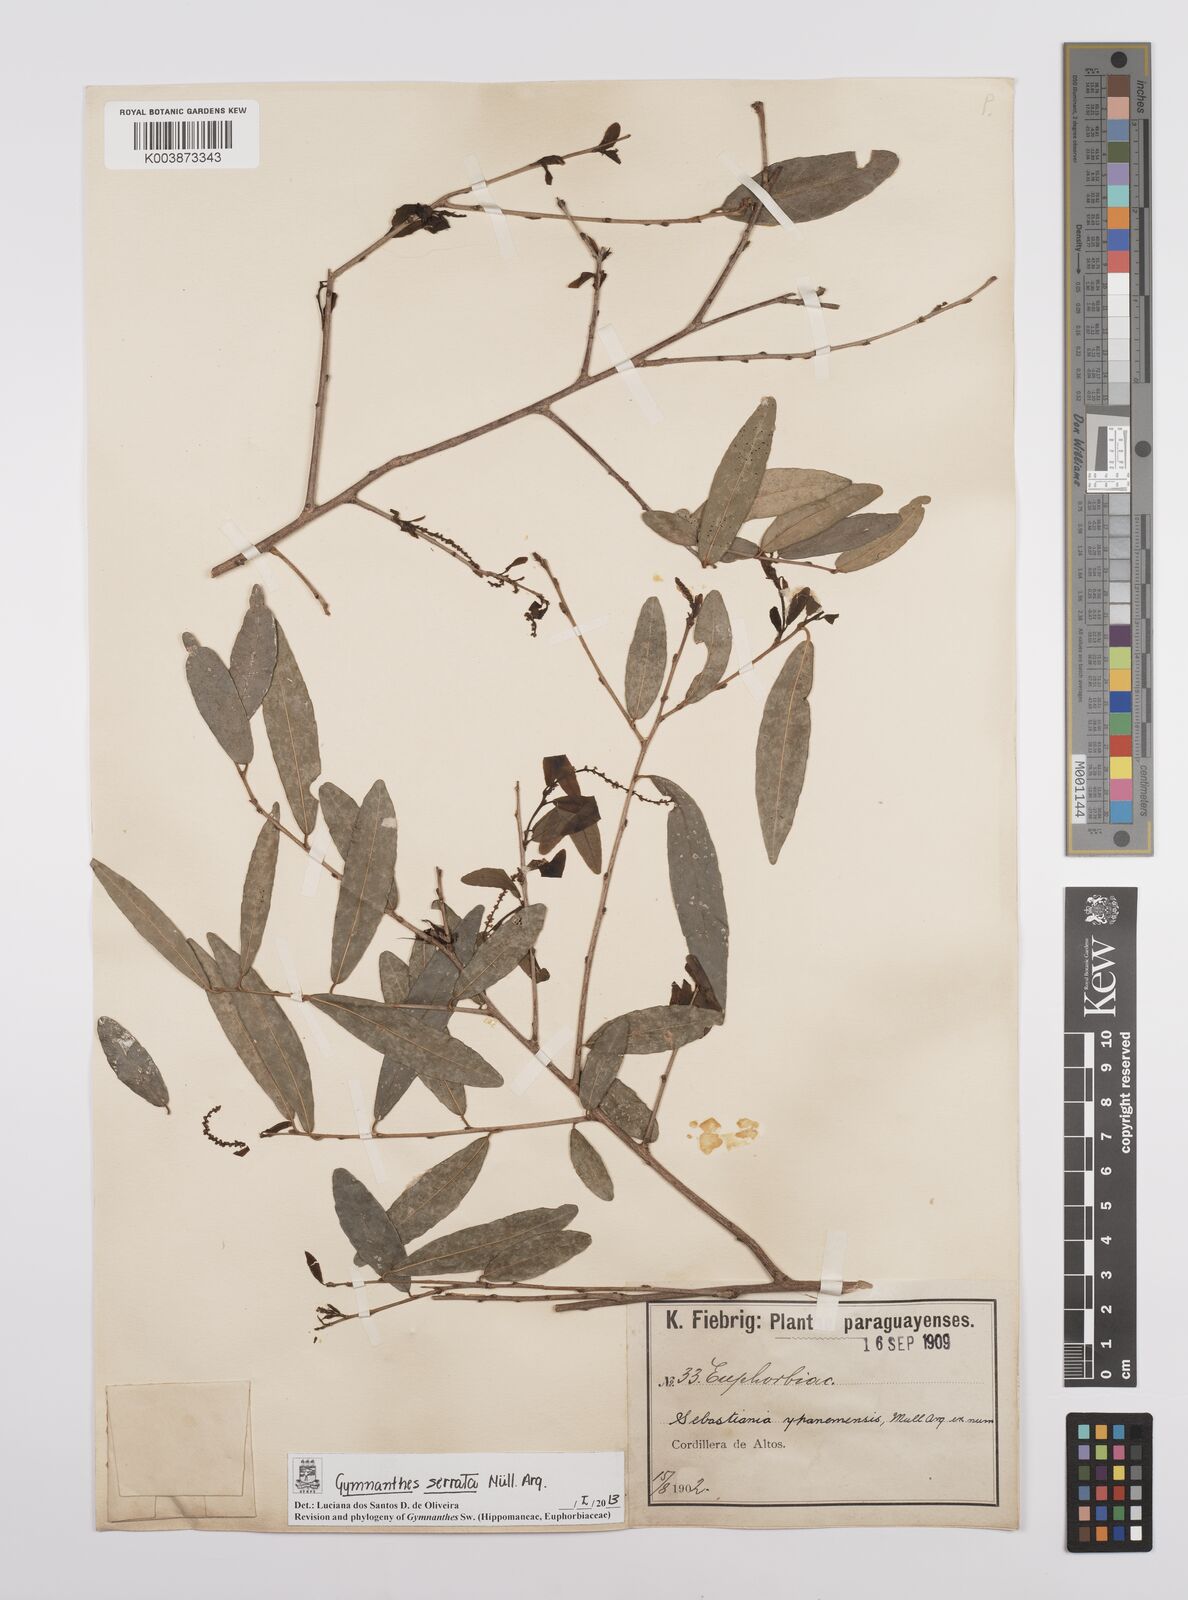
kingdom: Plantae
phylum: Tracheophyta
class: Magnoliopsida
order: Malpighiales
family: Euphorbiaceae
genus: Sebastiania
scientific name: Sebastiania serrata
